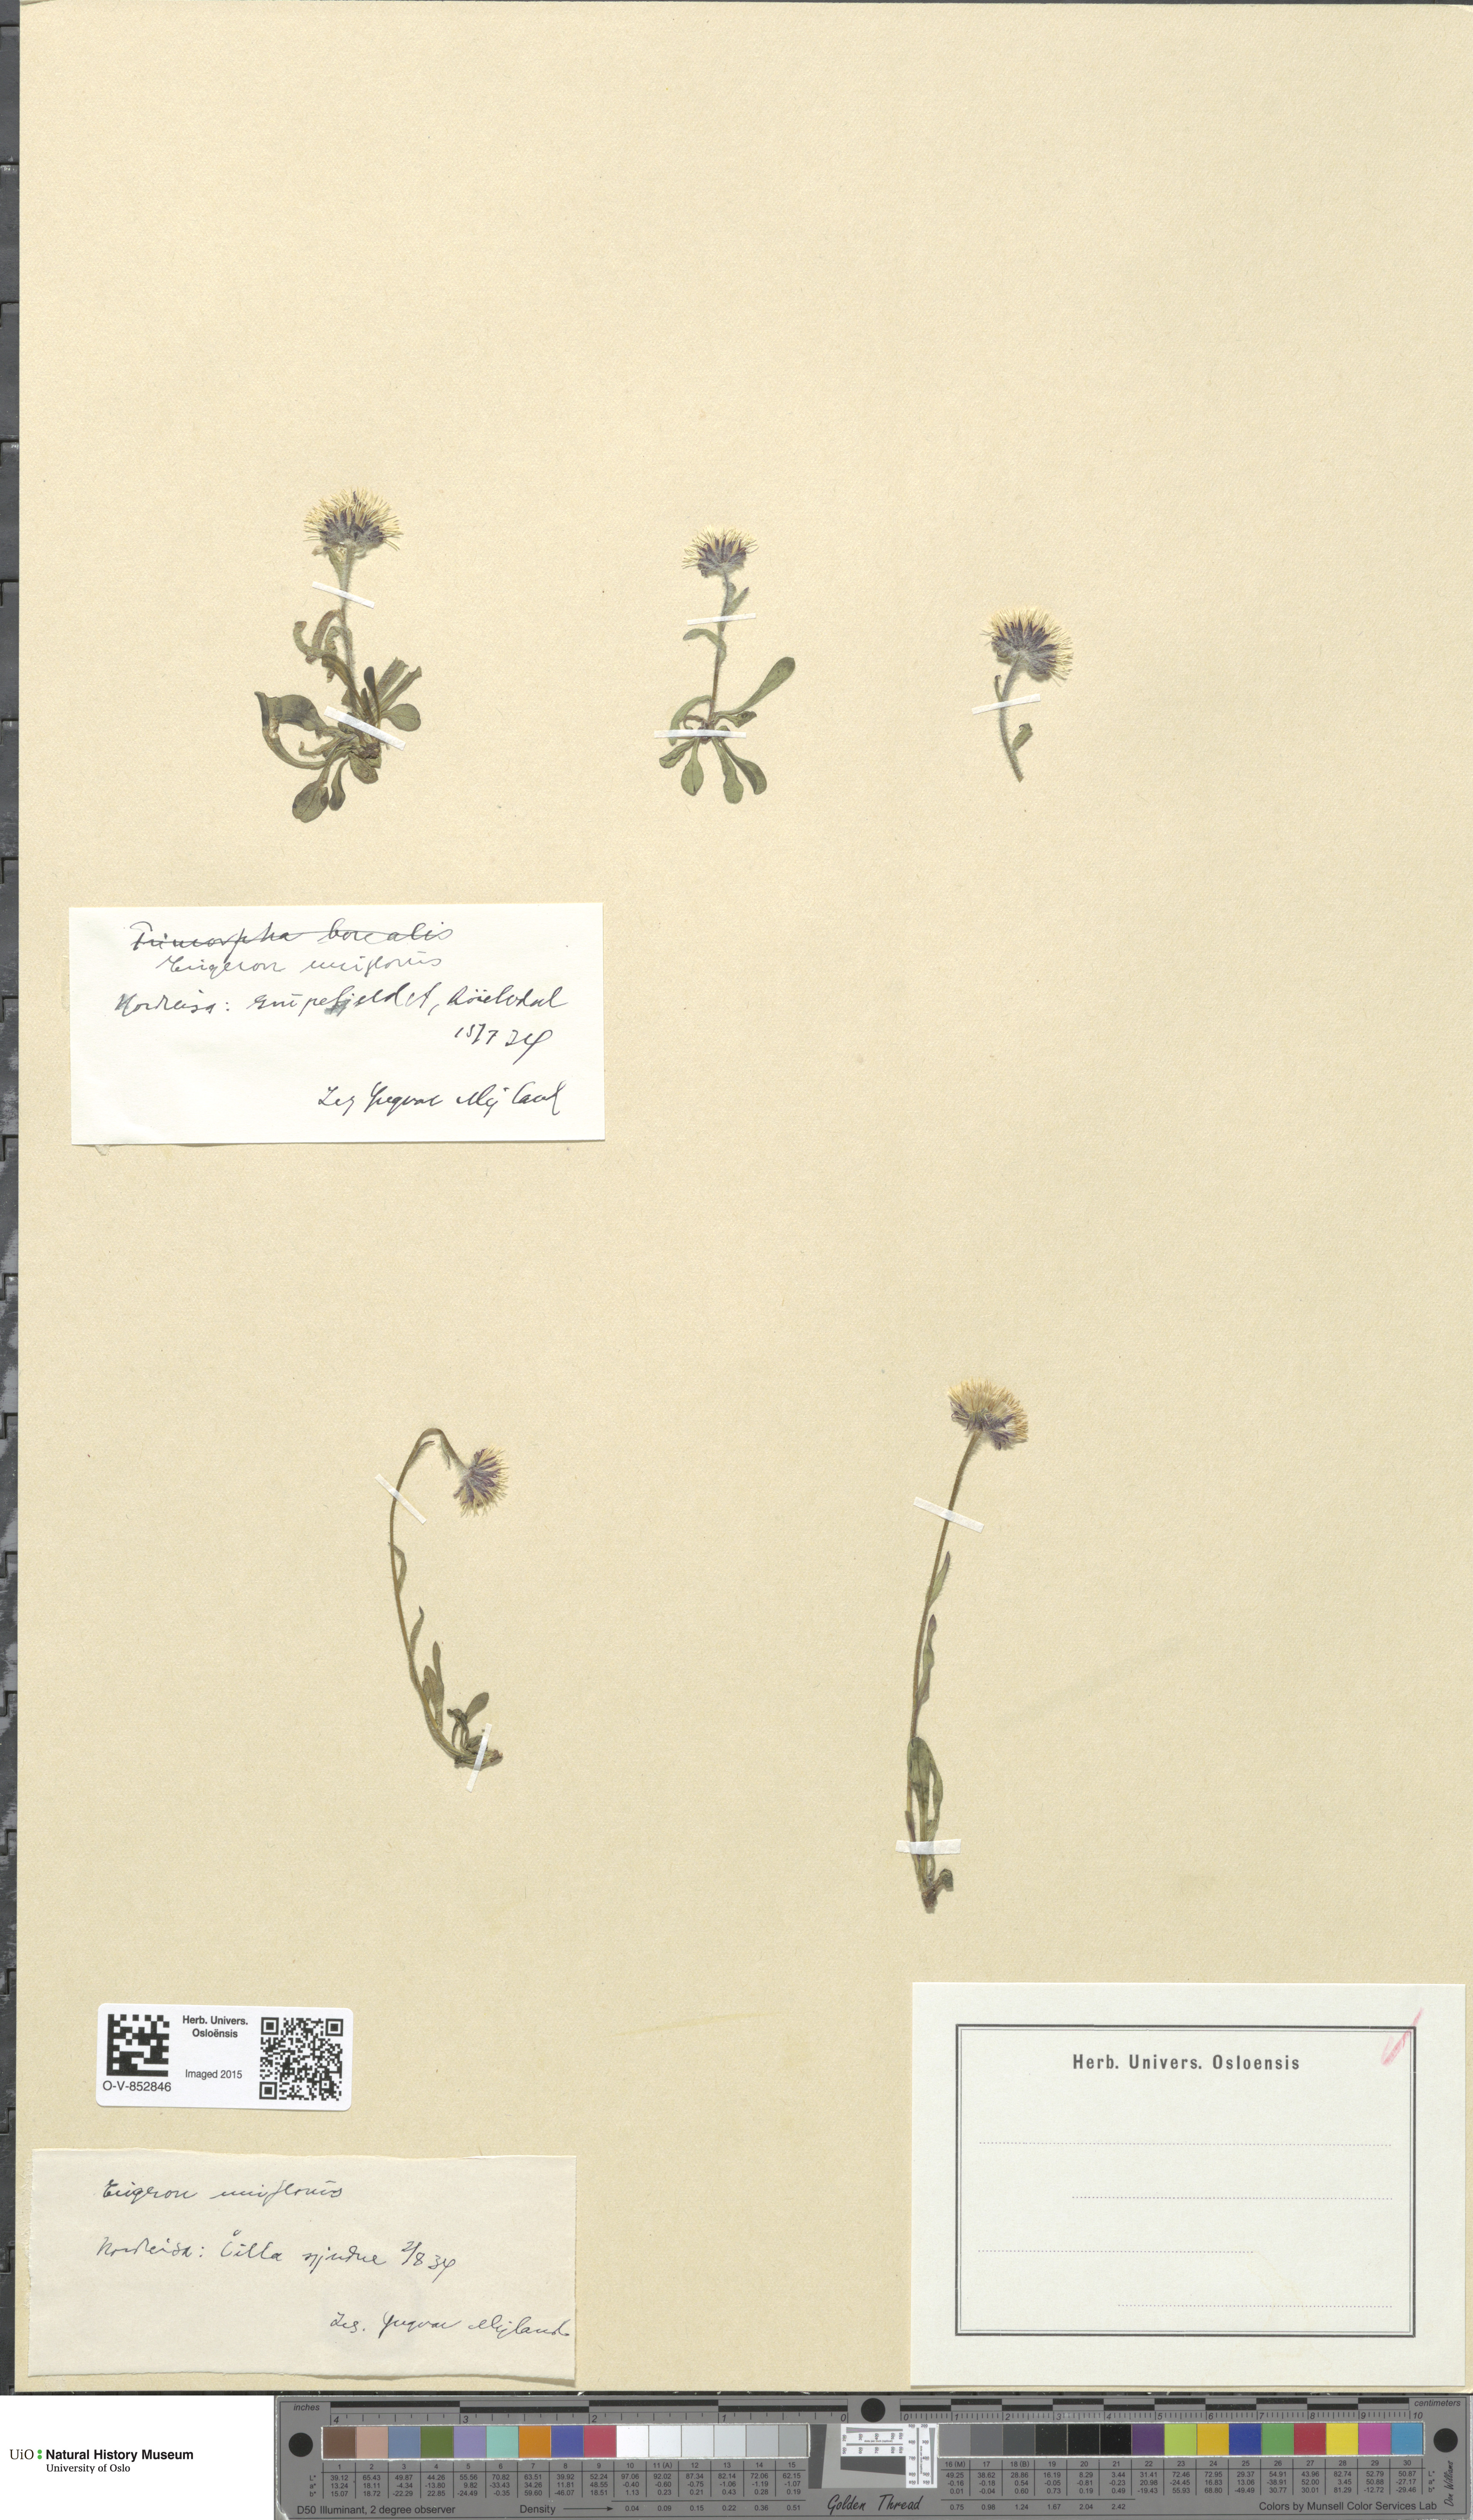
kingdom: Plantae
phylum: Tracheophyta
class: Magnoliopsida
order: Asterales
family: Asteraceae
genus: Erigeron
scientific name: Erigeron uniflorus
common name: Northern daisy
